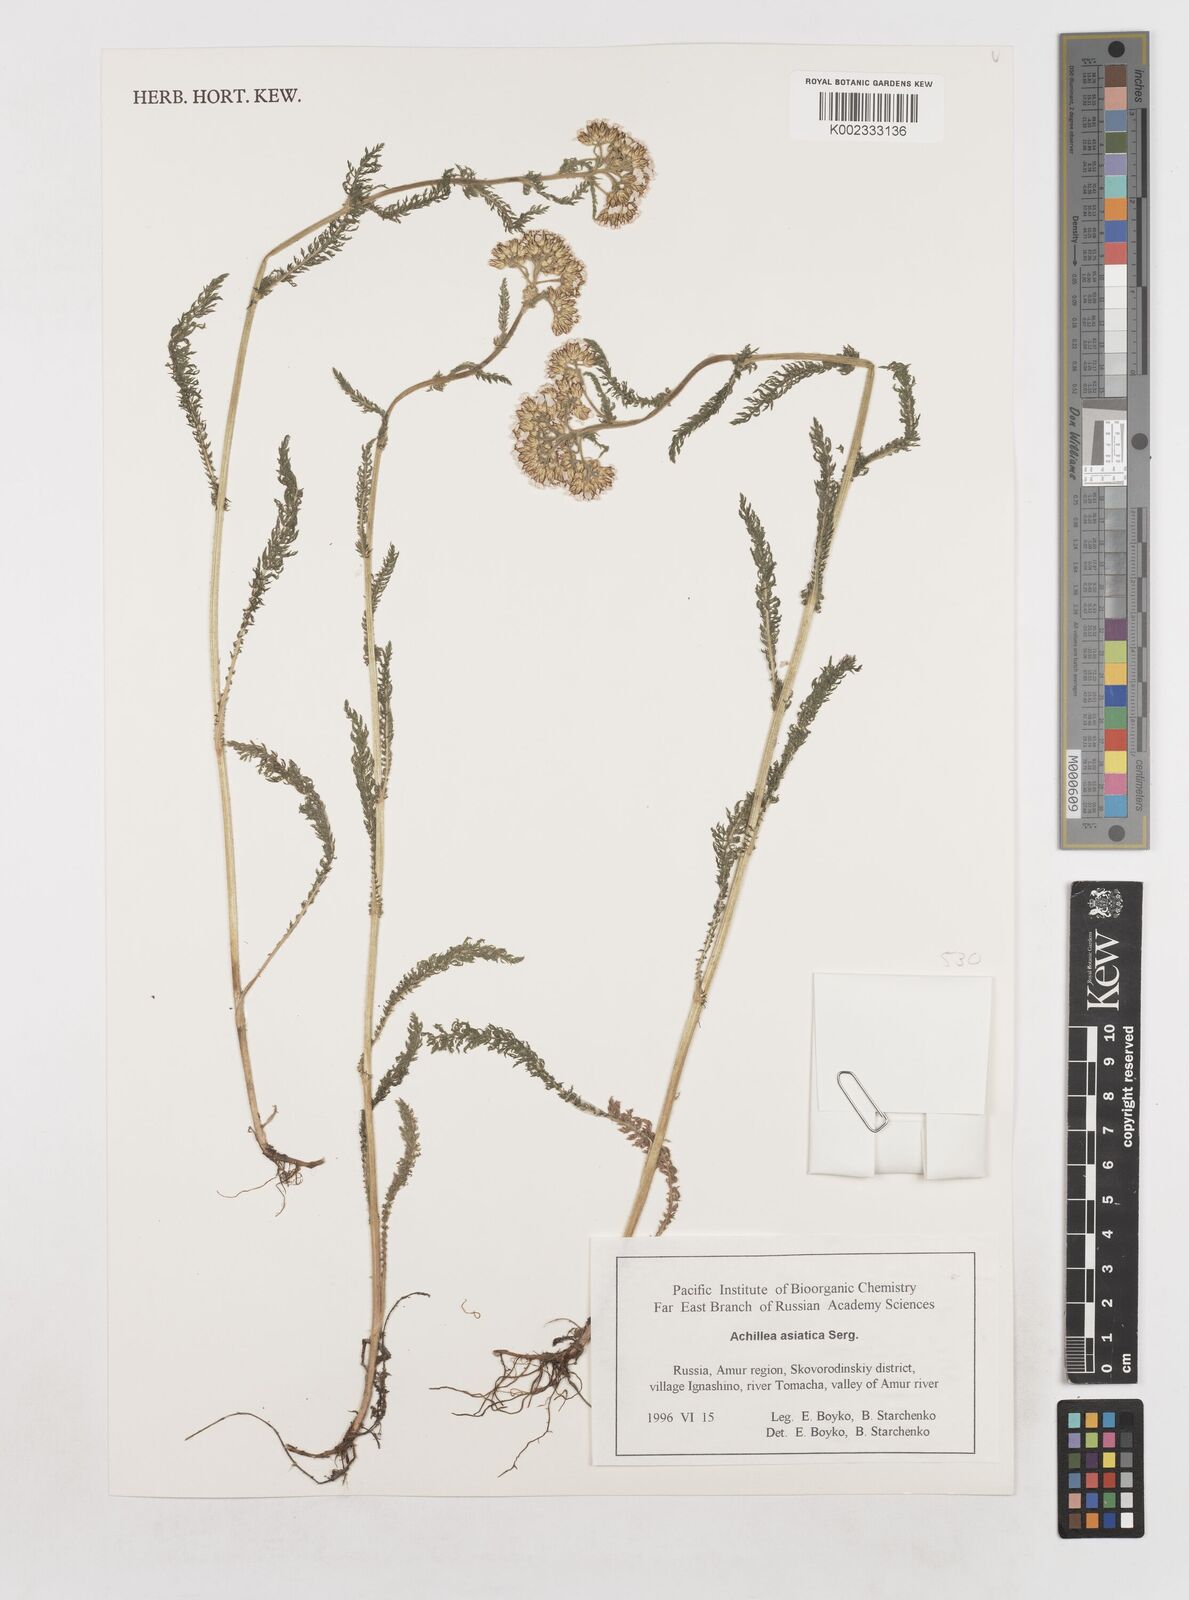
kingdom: Plantae
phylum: Tracheophyta
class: Magnoliopsida
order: Asterales
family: Asteraceae
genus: Achillea
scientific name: Achillea asiatica
